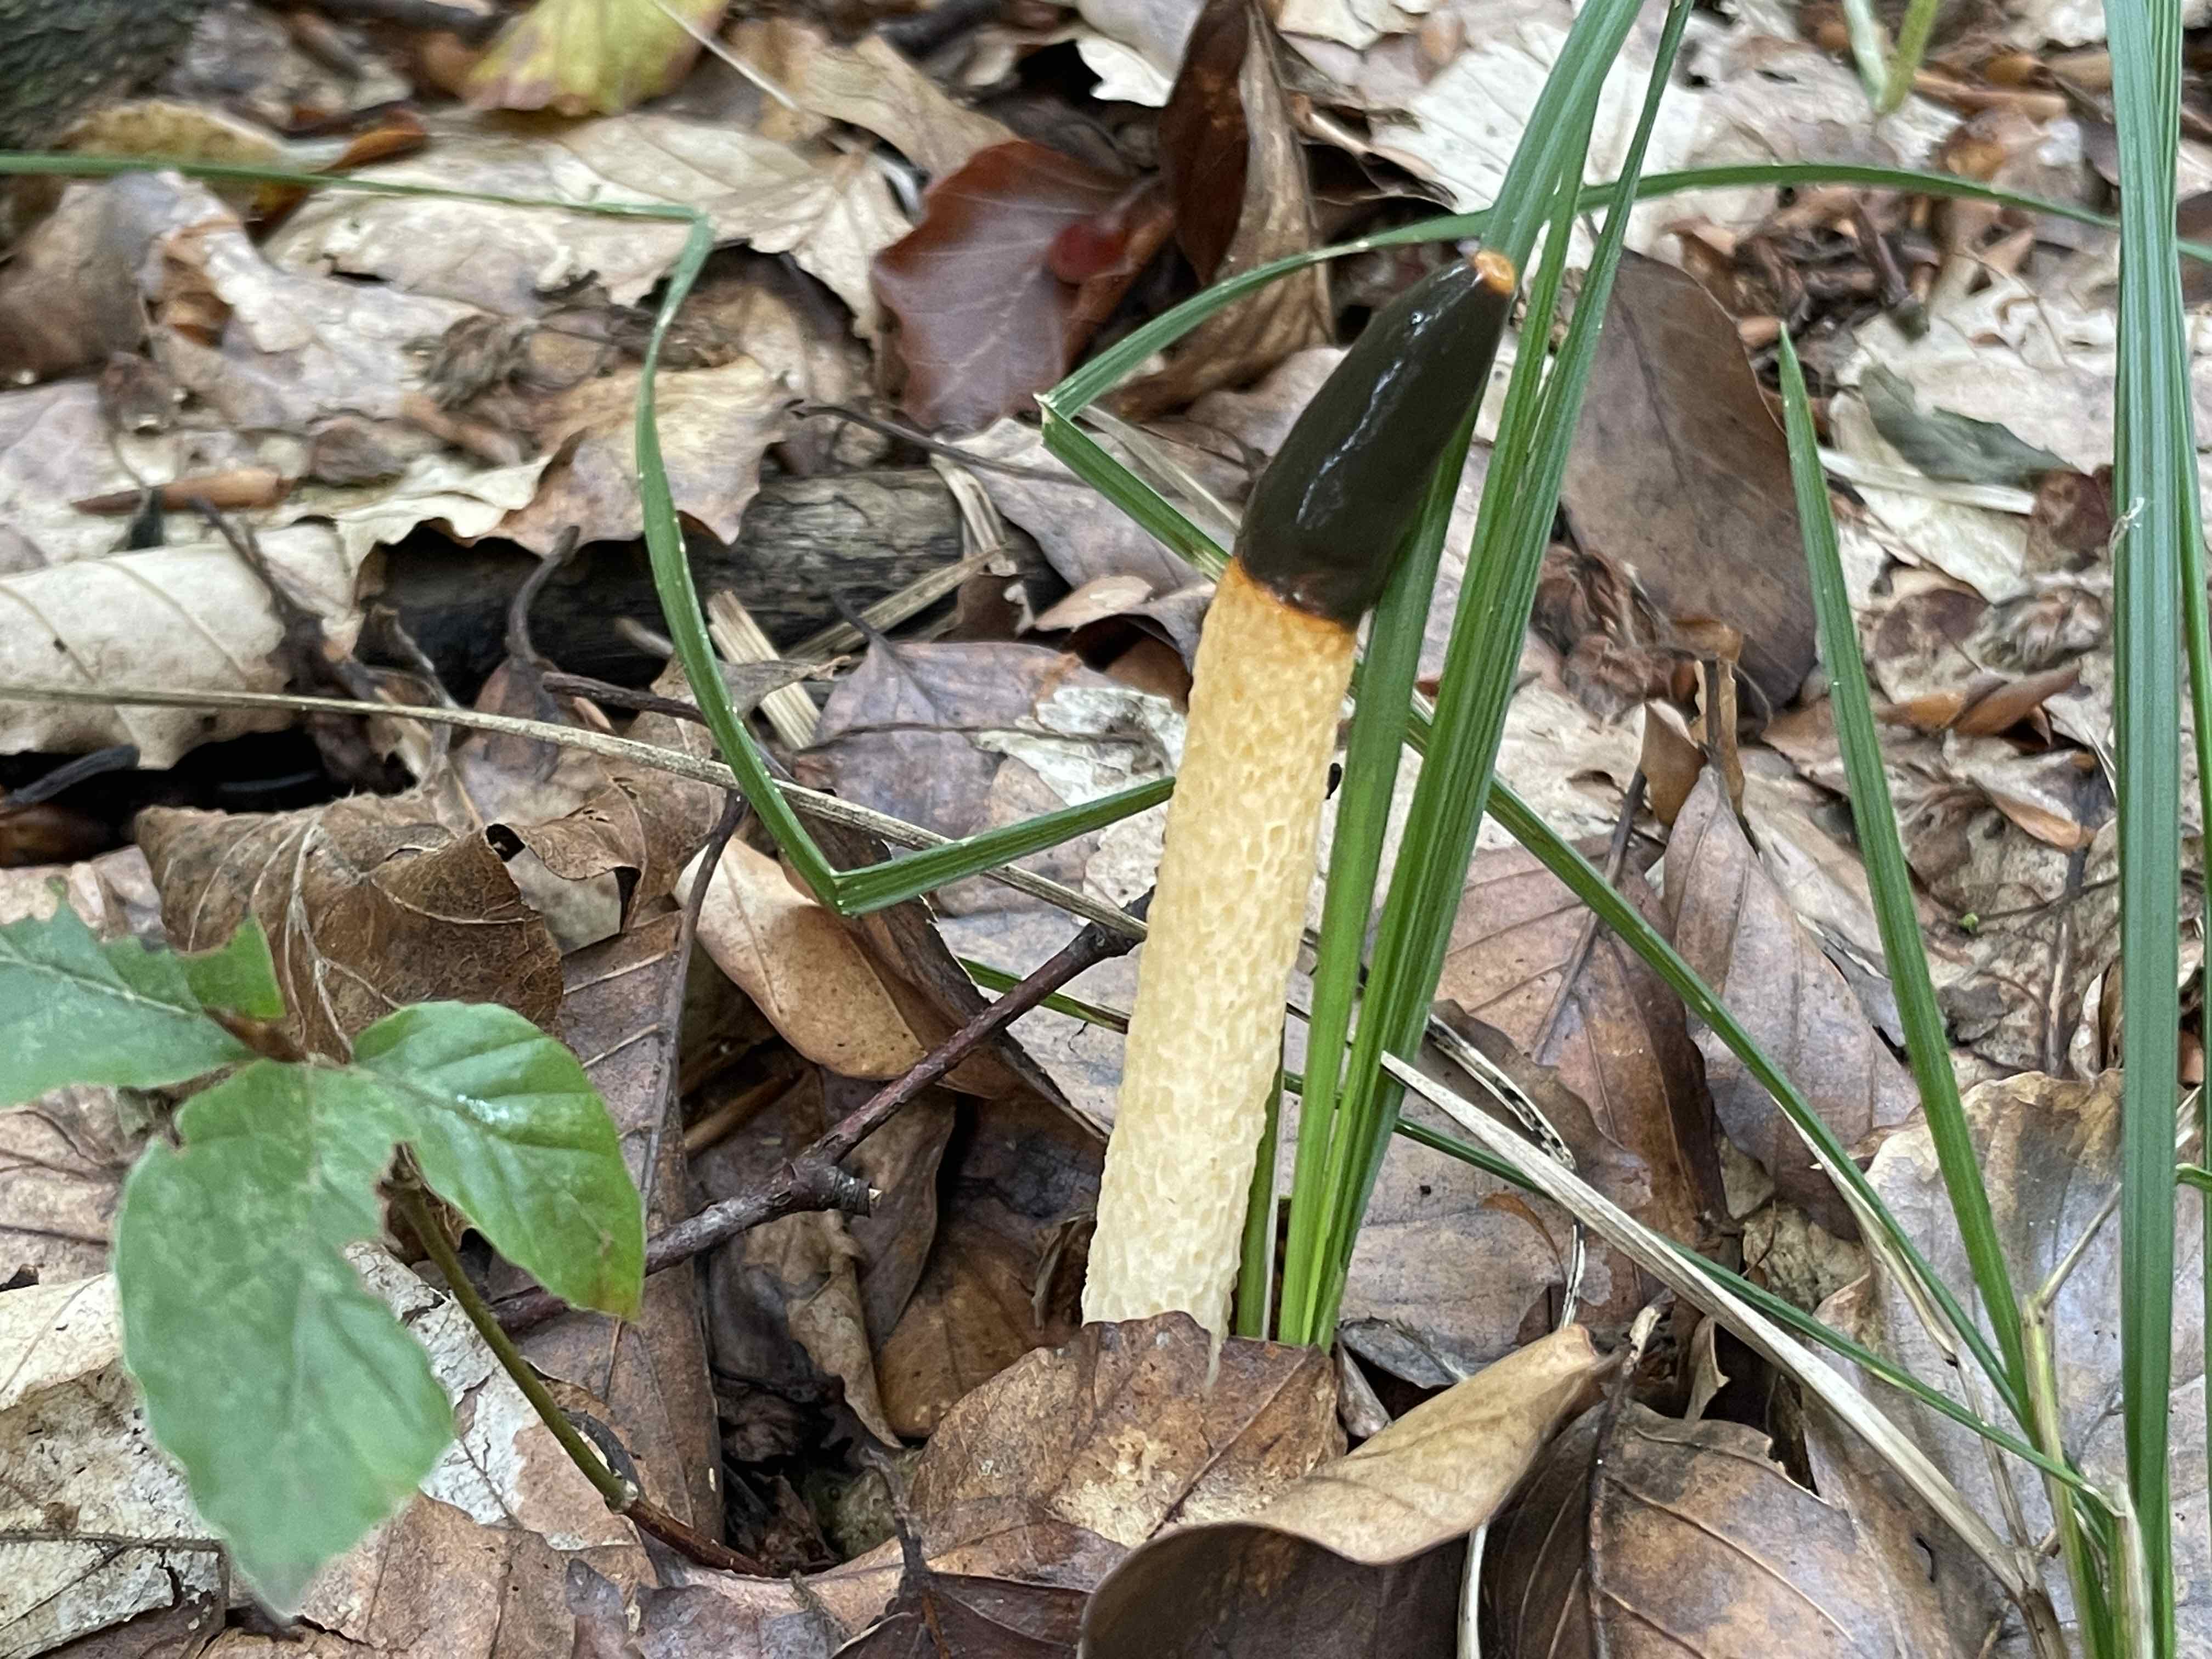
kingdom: Fungi
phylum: Basidiomycota
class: Agaricomycetes
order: Phallales
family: Phallaceae
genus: Mutinus
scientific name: Mutinus caninus
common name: hunde-stinksvamp
